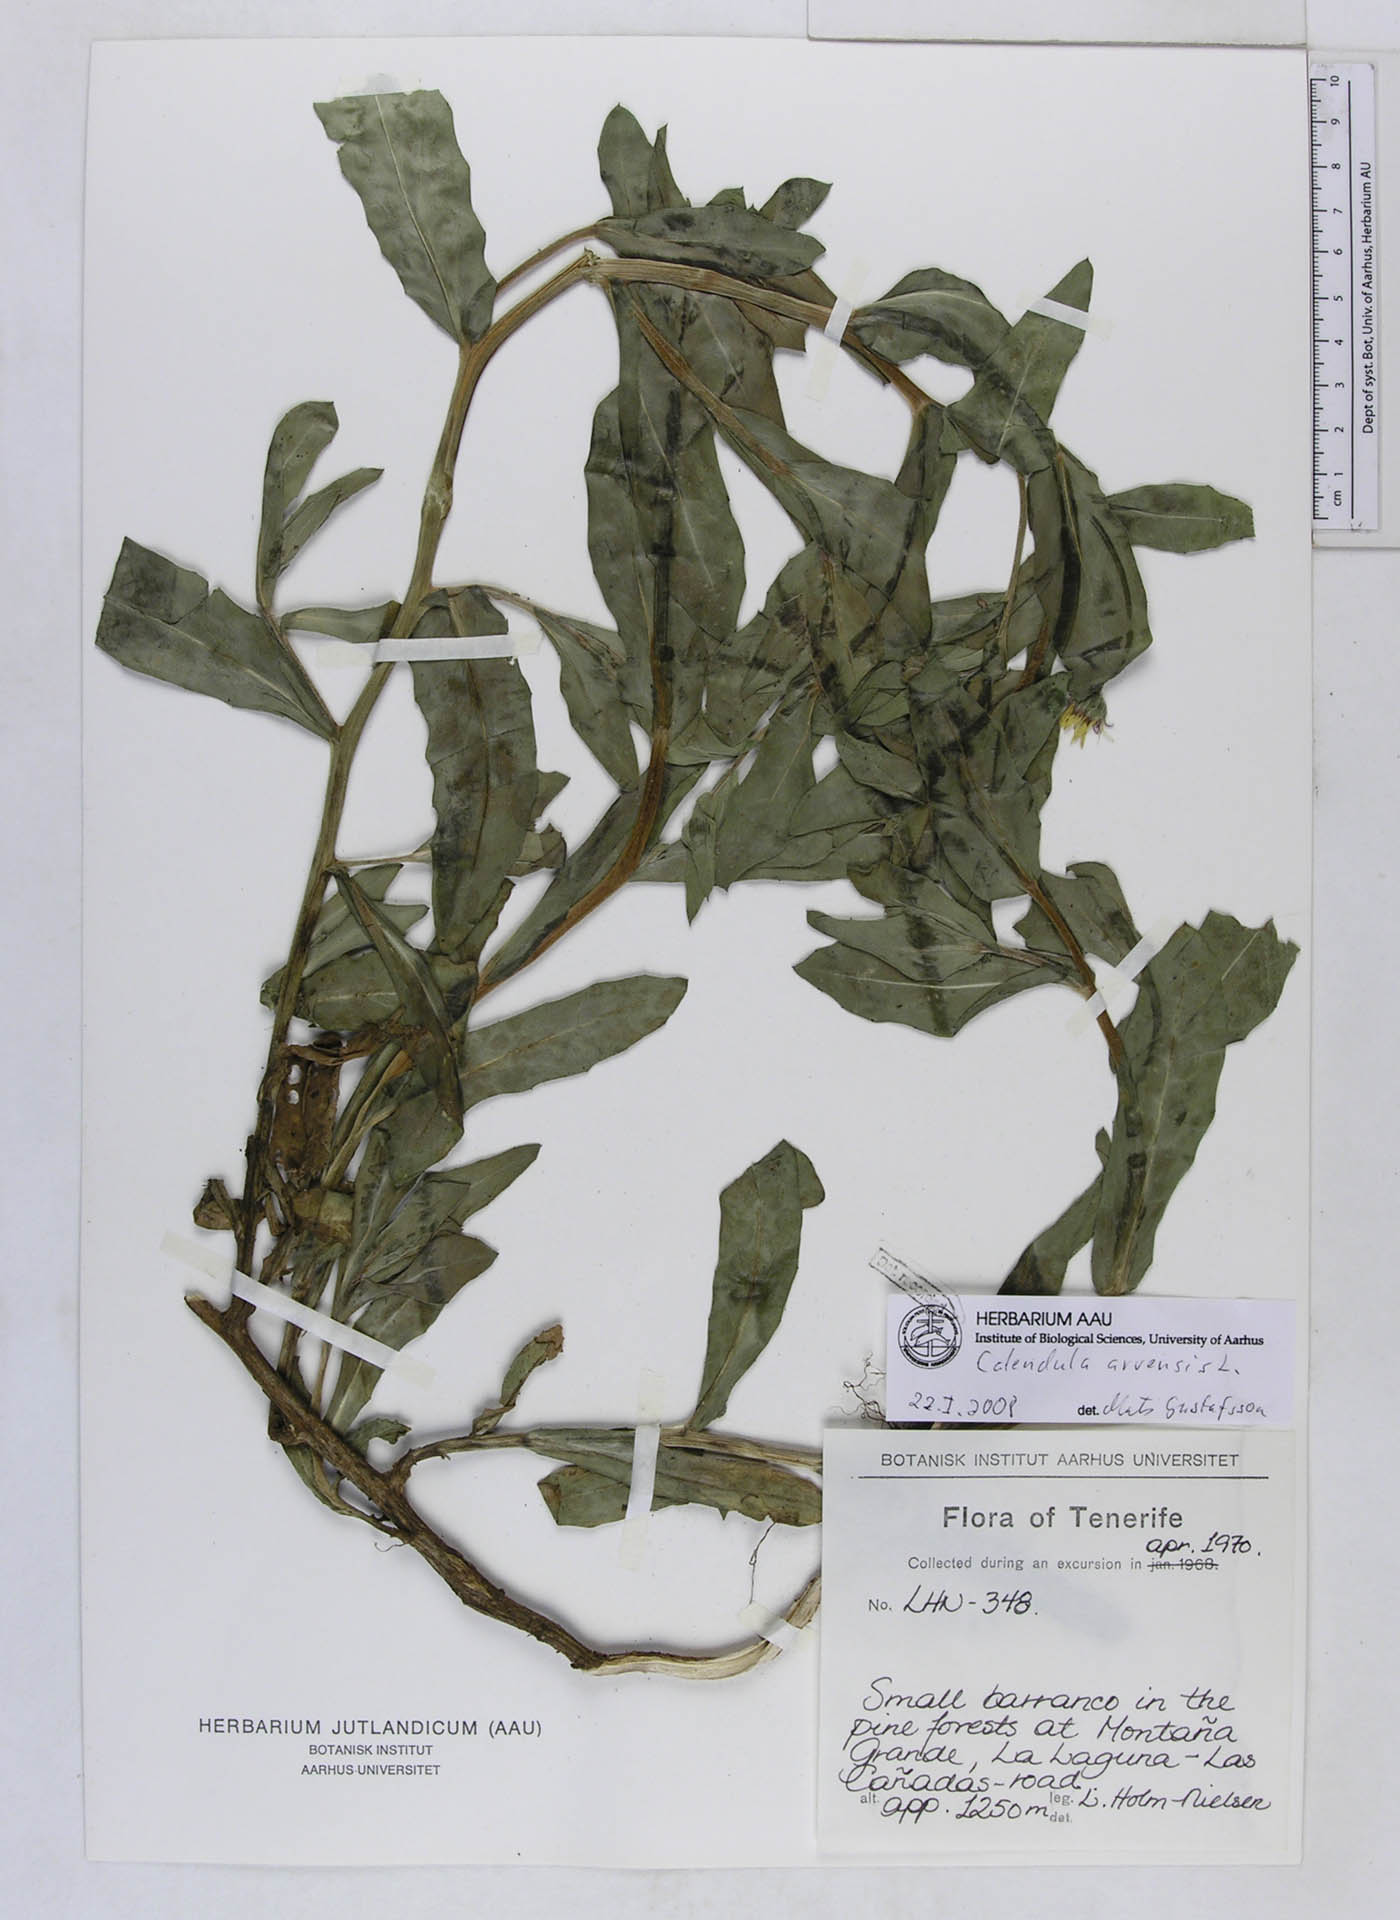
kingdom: Plantae
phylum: Tracheophyta
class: Magnoliopsida
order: Asterales
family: Asteraceae
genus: Calendula
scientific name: Calendula arvensis
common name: Field marigold
